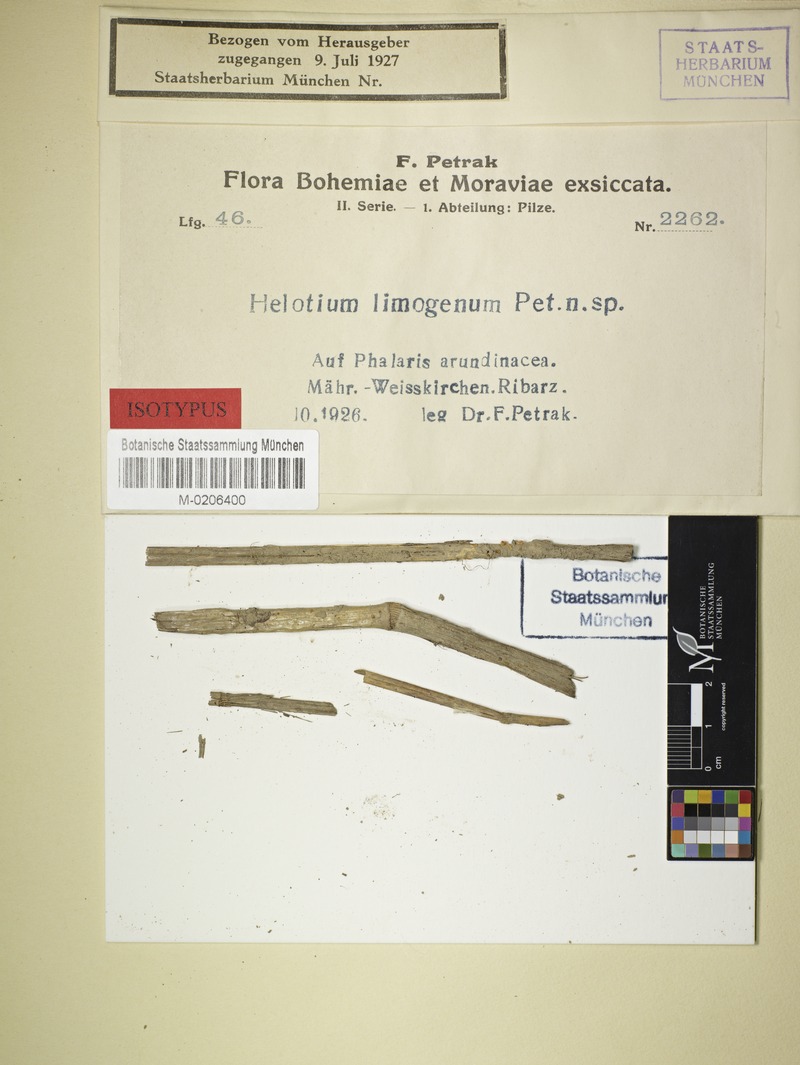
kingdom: Fungi
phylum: Ascomycota
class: Leotiomycetes
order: Helotiales
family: Tricladiaceae
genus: Helotium
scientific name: Helotium limnogenum
